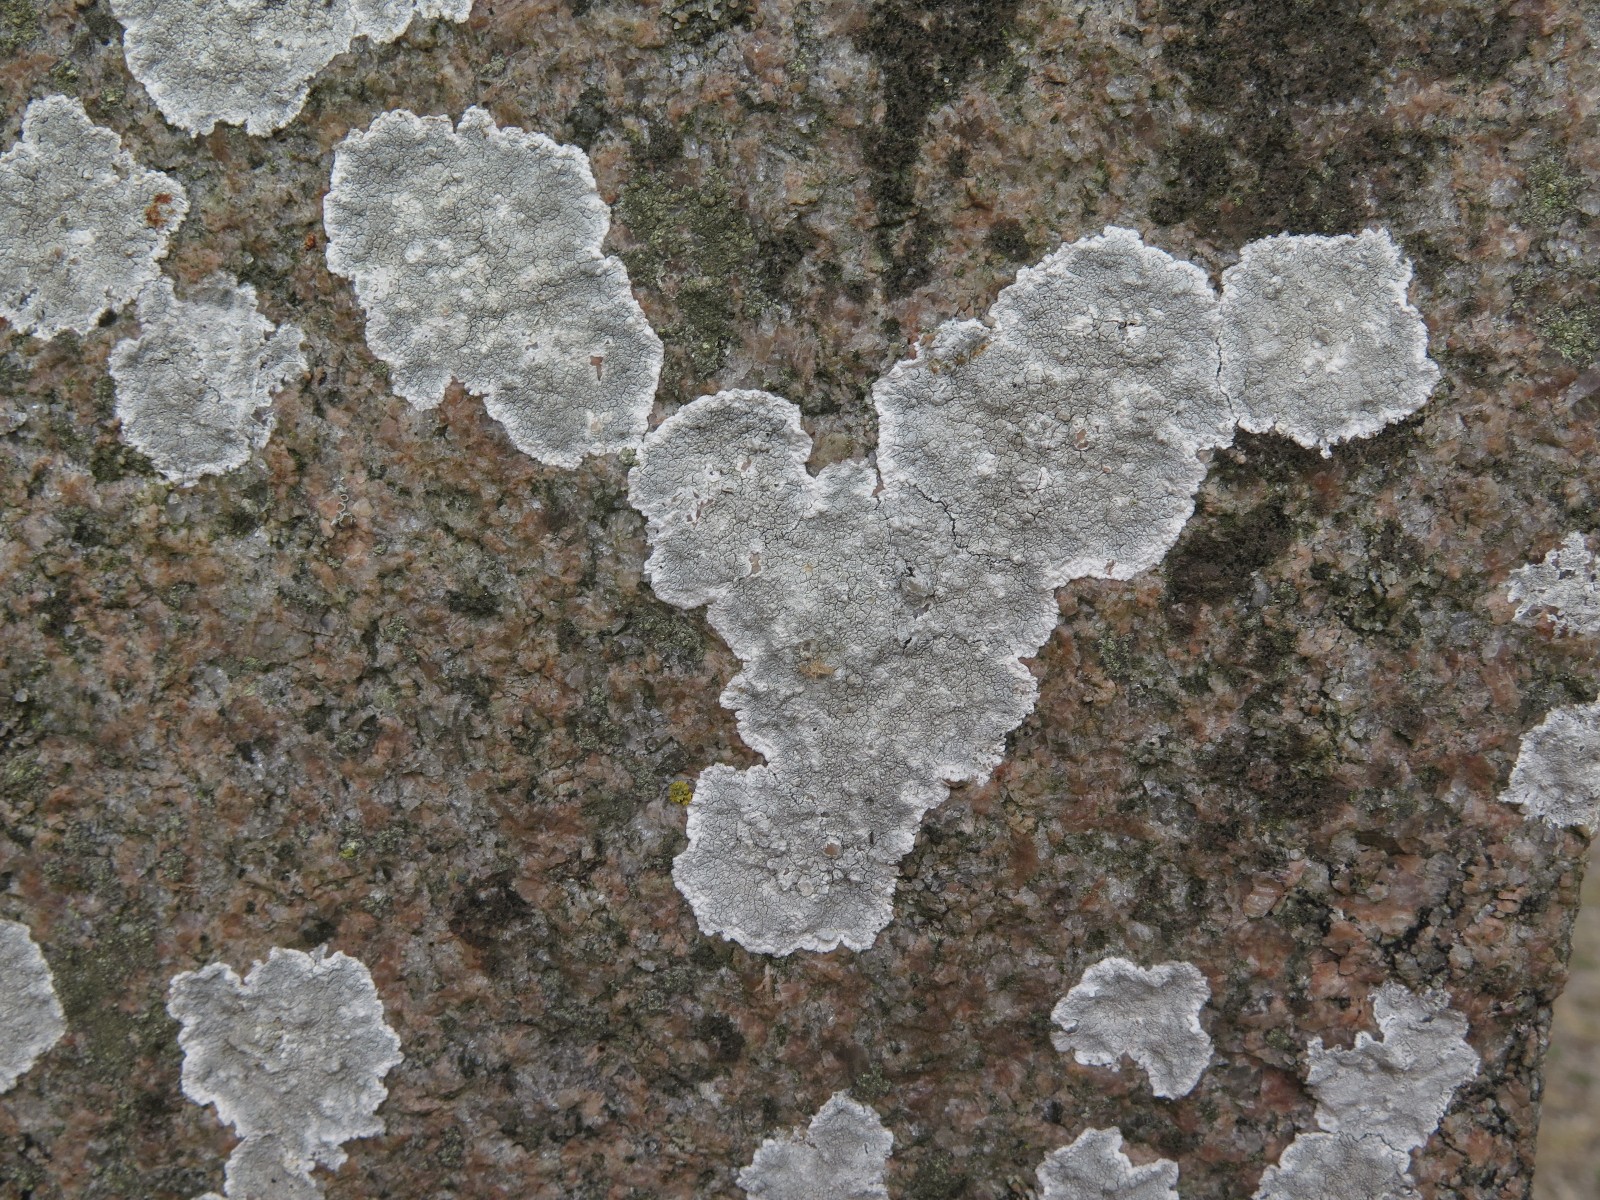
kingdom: Fungi
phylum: Ascomycota
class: Lecanoromycetes
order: Lecanorales
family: Lecanoraceae
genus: Glaucomaria
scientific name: Glaucomaria rupicola
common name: stengærde-kantskivelav
